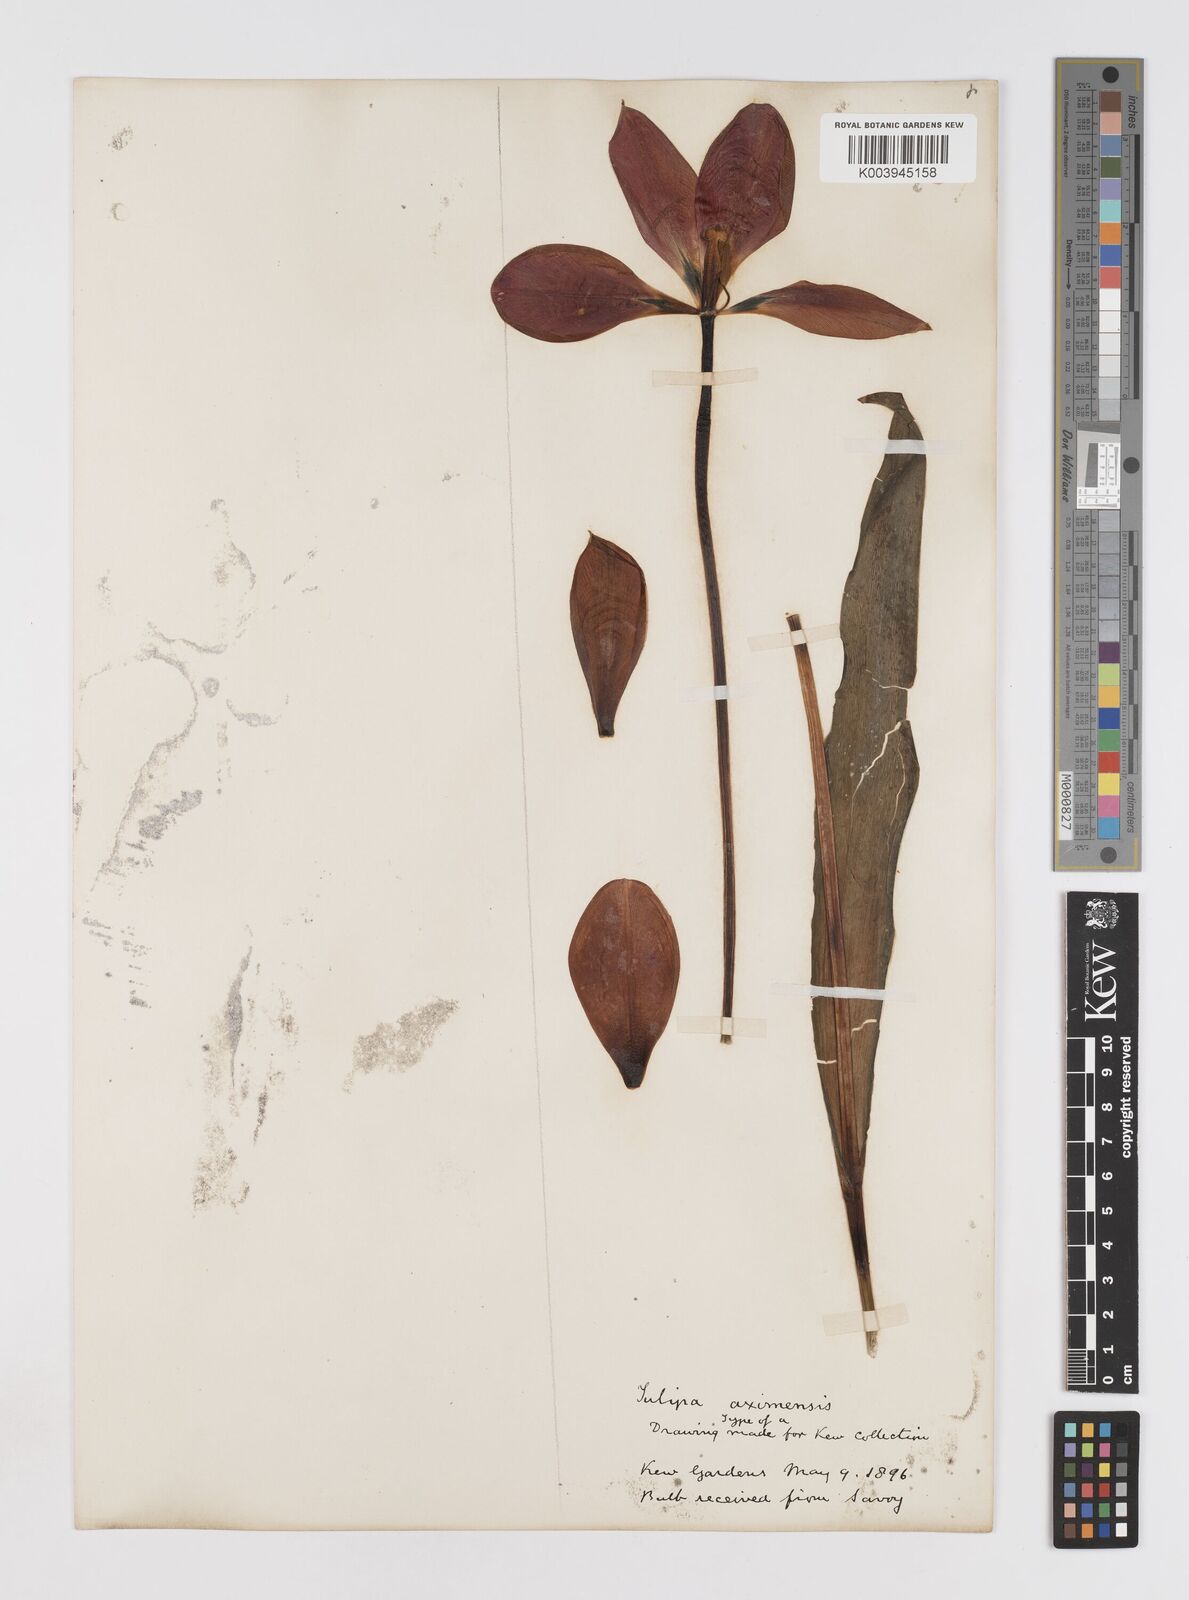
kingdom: Plantae
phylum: Tracheophyta
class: Liliopsida
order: Liliales
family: Liliaceae
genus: Tulipa
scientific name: Tulipa agenensis
